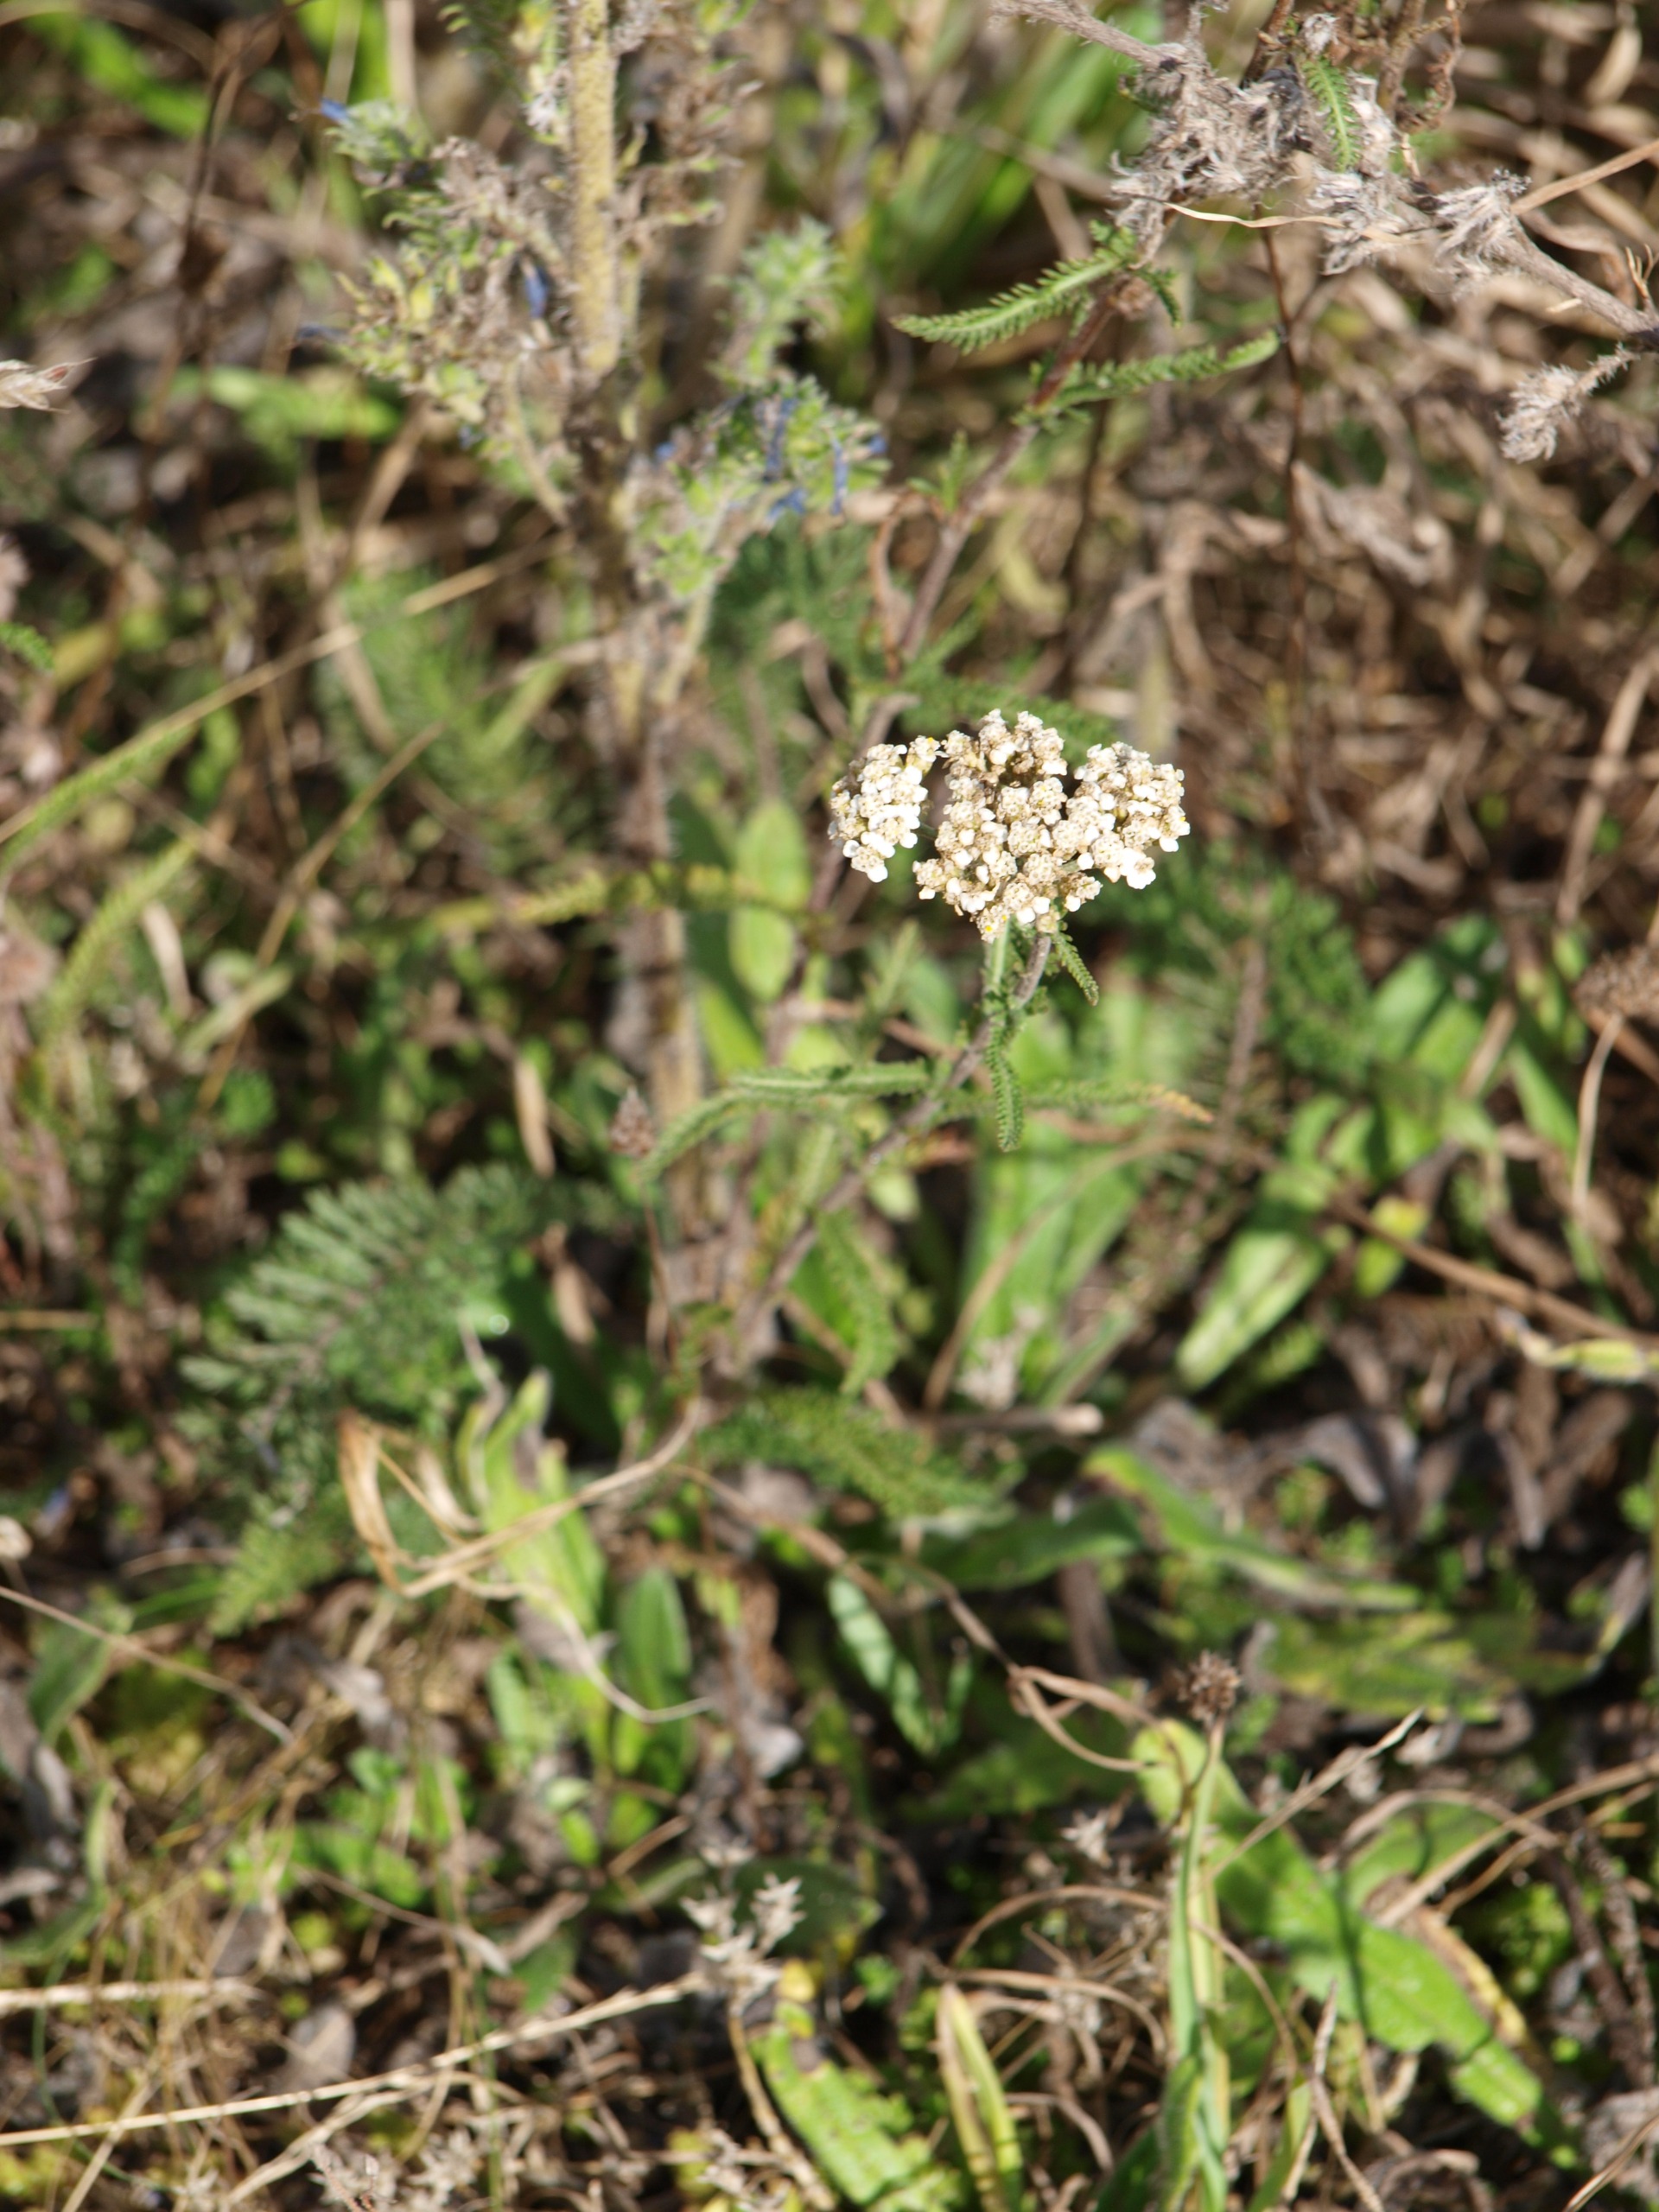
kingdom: Plantae
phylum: Tracheophyta
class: Magnoliopsida
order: Asterales
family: Asteraceae
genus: Achillea
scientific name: Achillea millefolium
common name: Almindelig røllike
